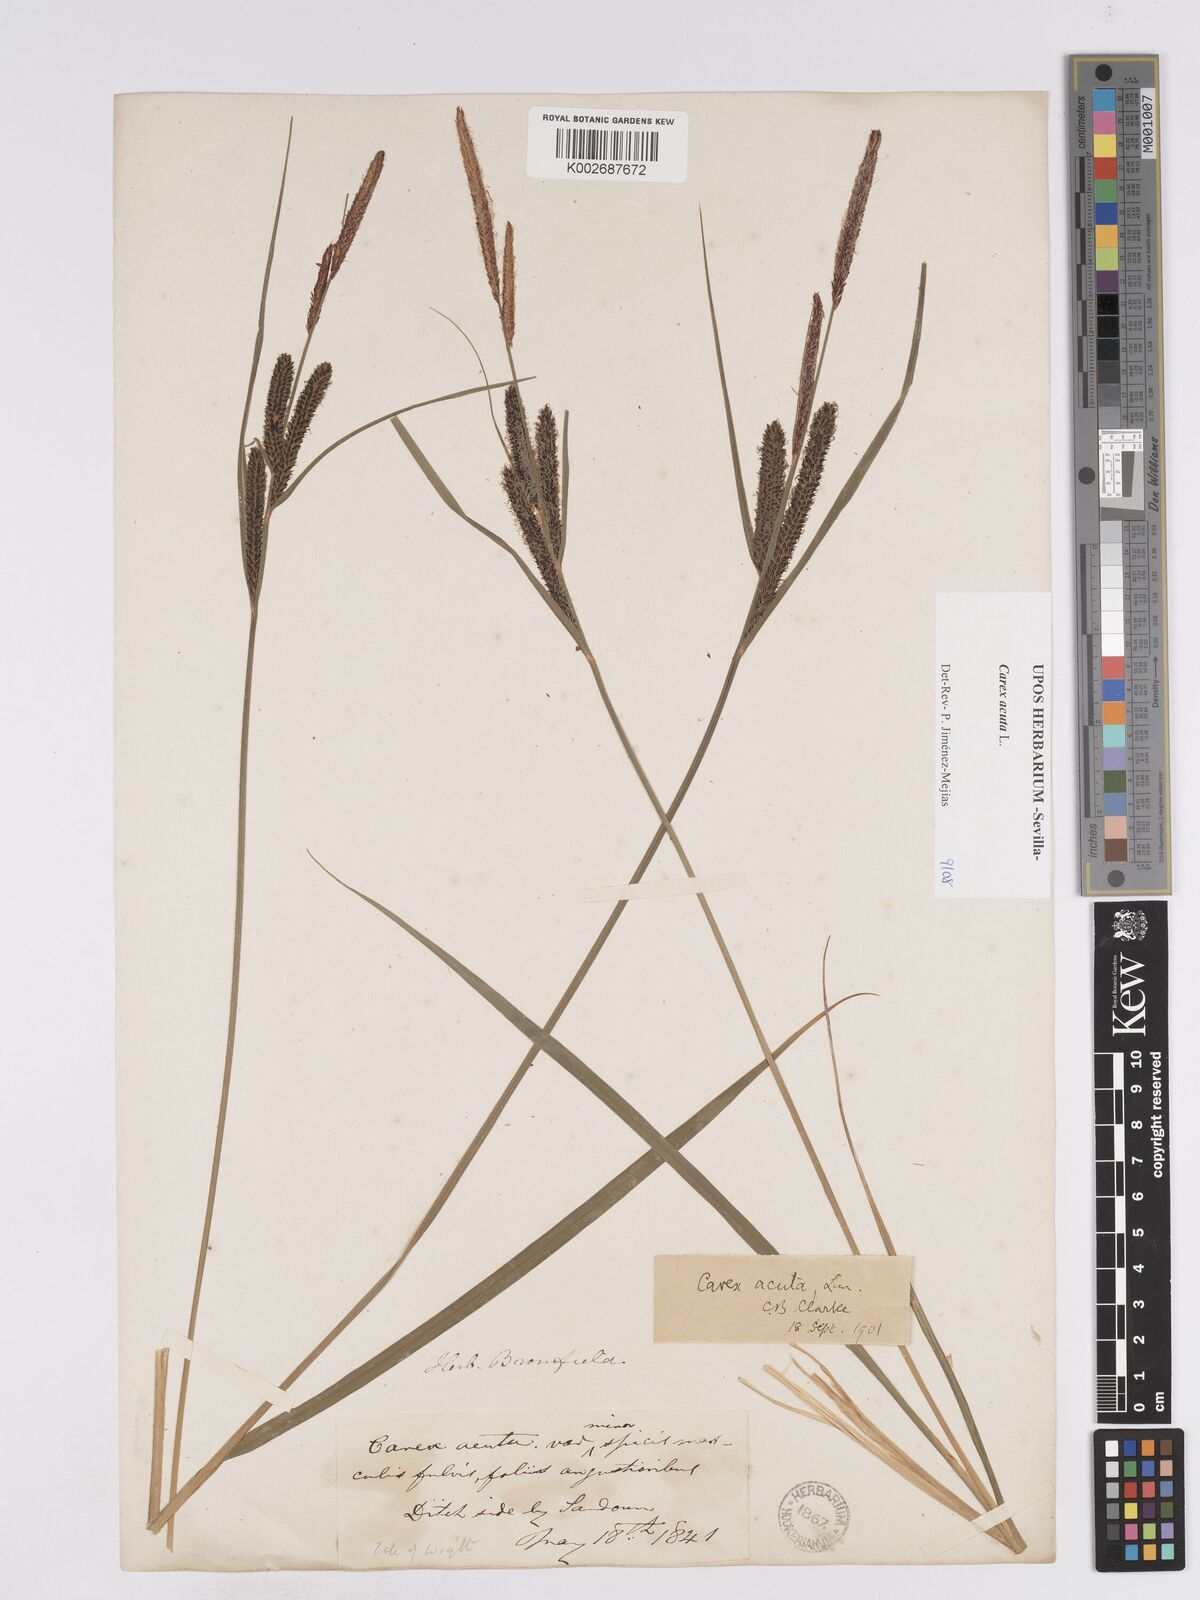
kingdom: Plantae
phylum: Tracheophyta
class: Liliopsida
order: Poales
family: Cyperaceae
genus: Carex
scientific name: Carex acuta
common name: Slender tufted-sedge
